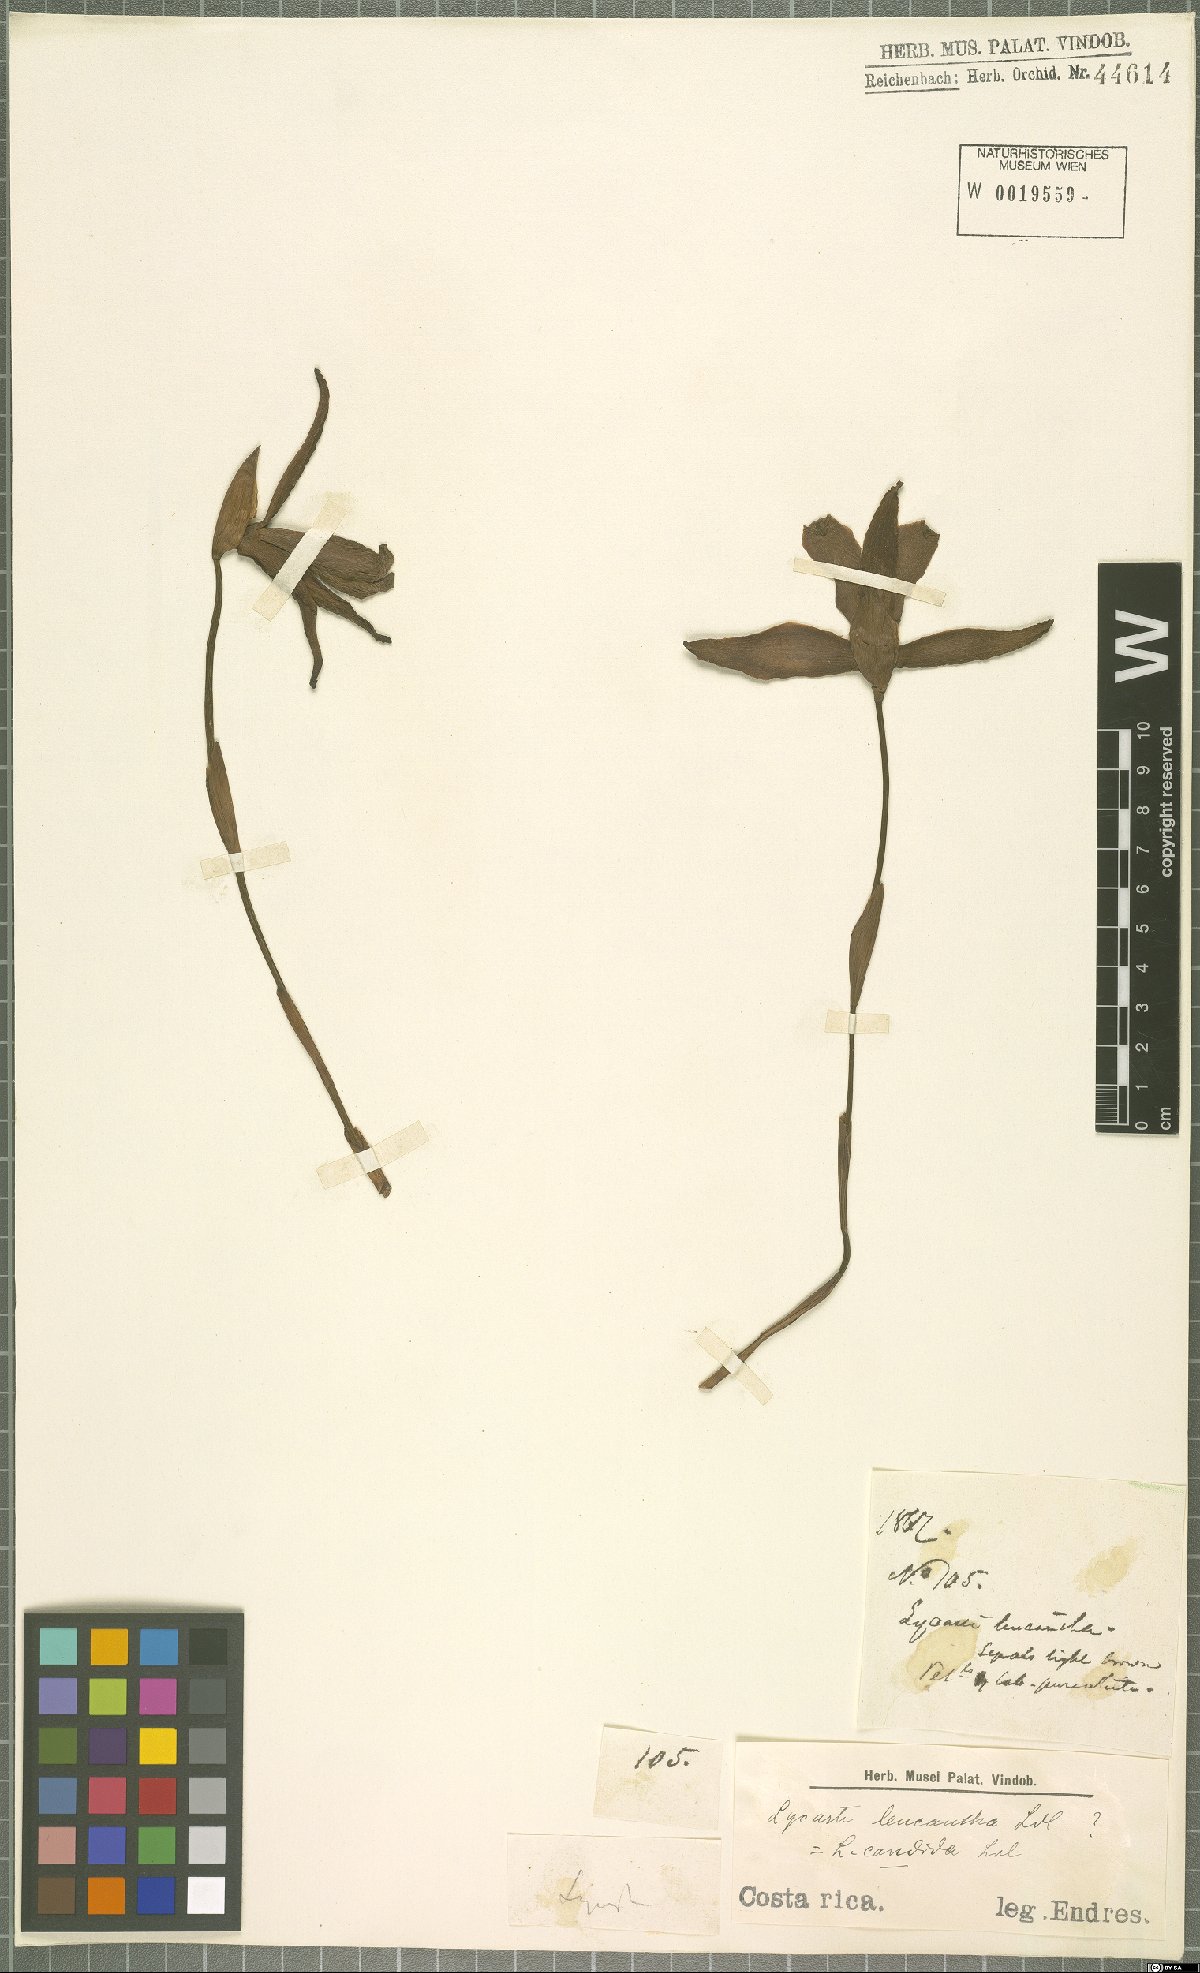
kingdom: Plantae
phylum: Tracheophyta
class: Liliopsida
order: Asparagales
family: Orchidaceae
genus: Lycaste
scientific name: Lycaste leucantha
